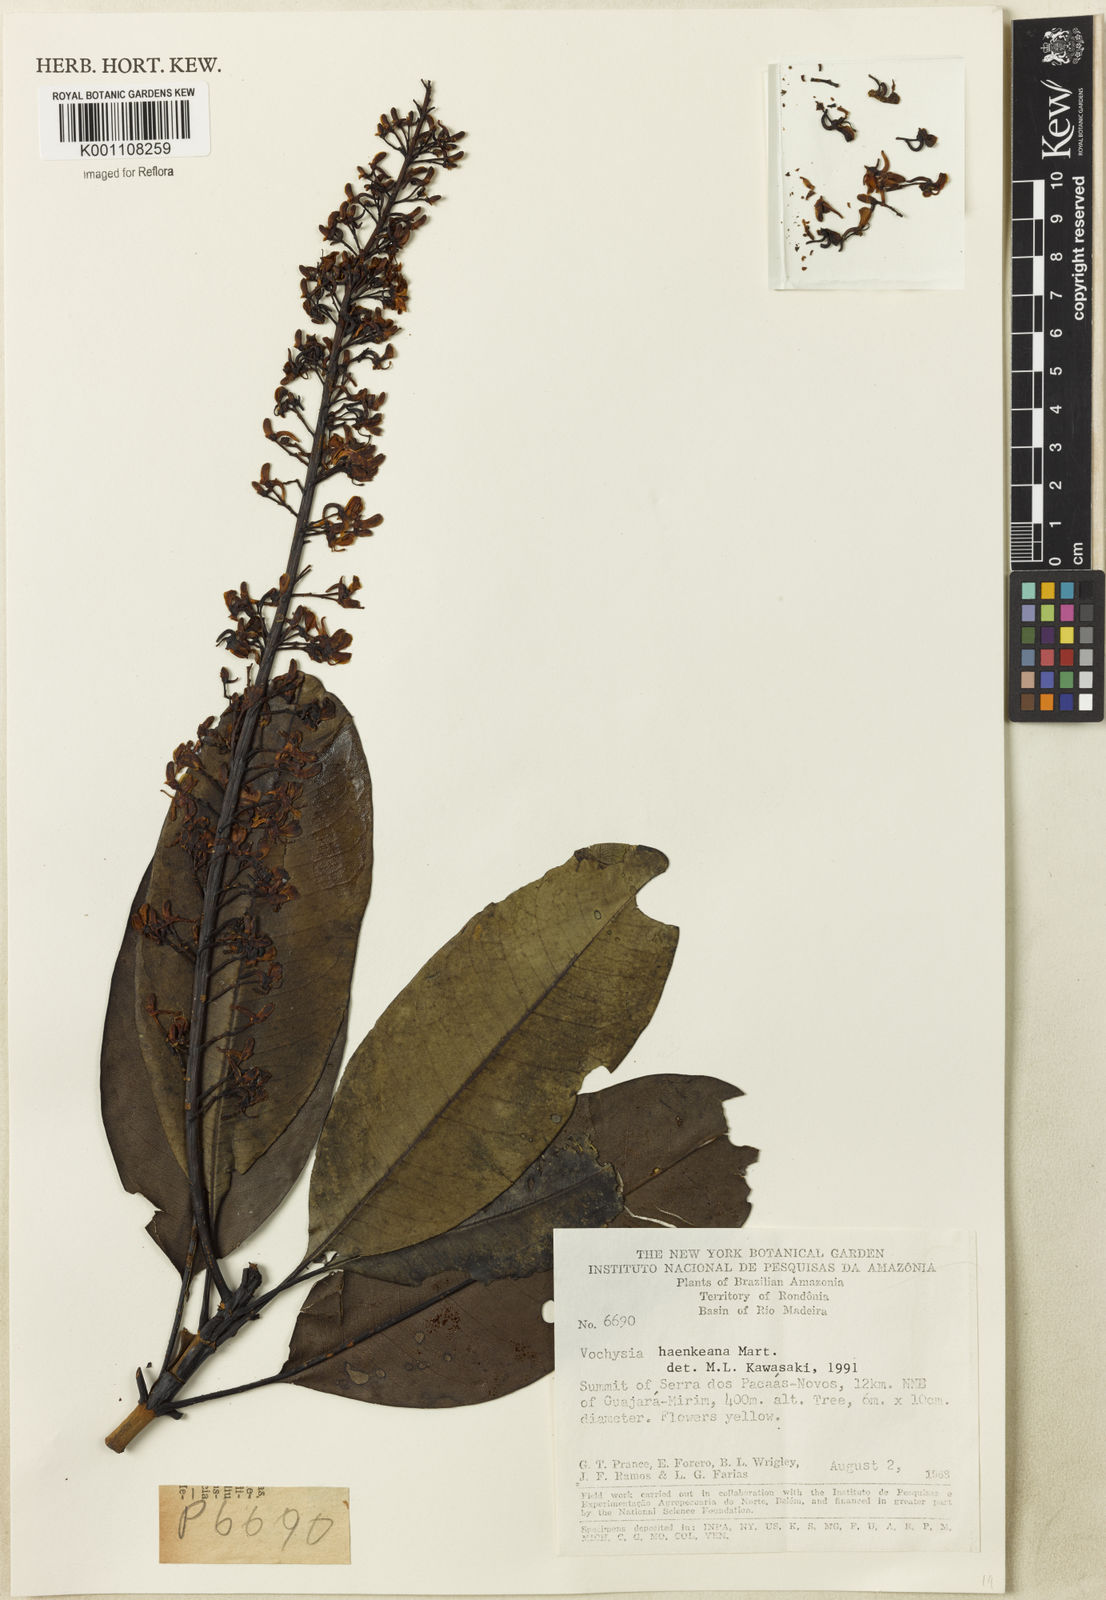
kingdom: Plantae
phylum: Tracheophyta
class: Magnoliopsida
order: Myrtales
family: Vochysiaceae
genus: Vochysia
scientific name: Vochysia haenkeana
